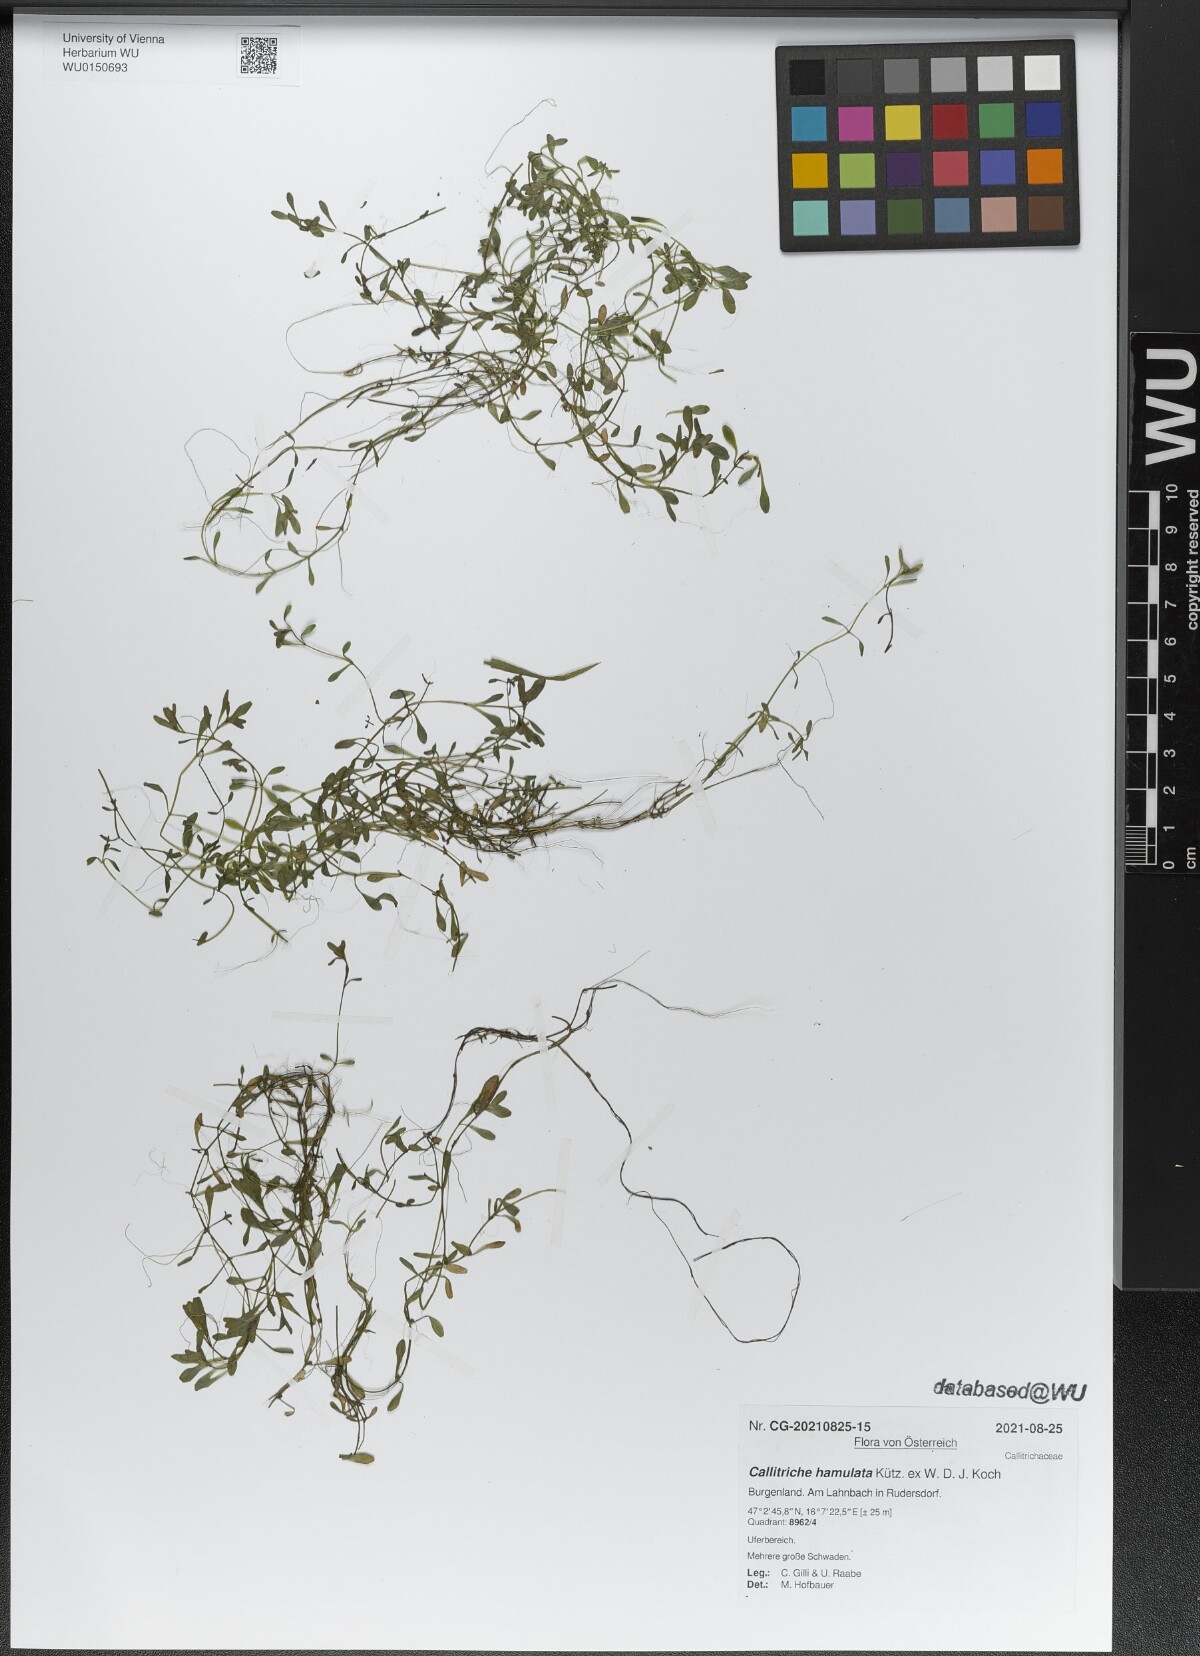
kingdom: Plantae
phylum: Tracheophyta
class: Magnoliopsida
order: Lamiales
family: Plantaginaceae
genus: Callitriche
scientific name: Callitriche hamulata
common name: Intermediate water-starwort
